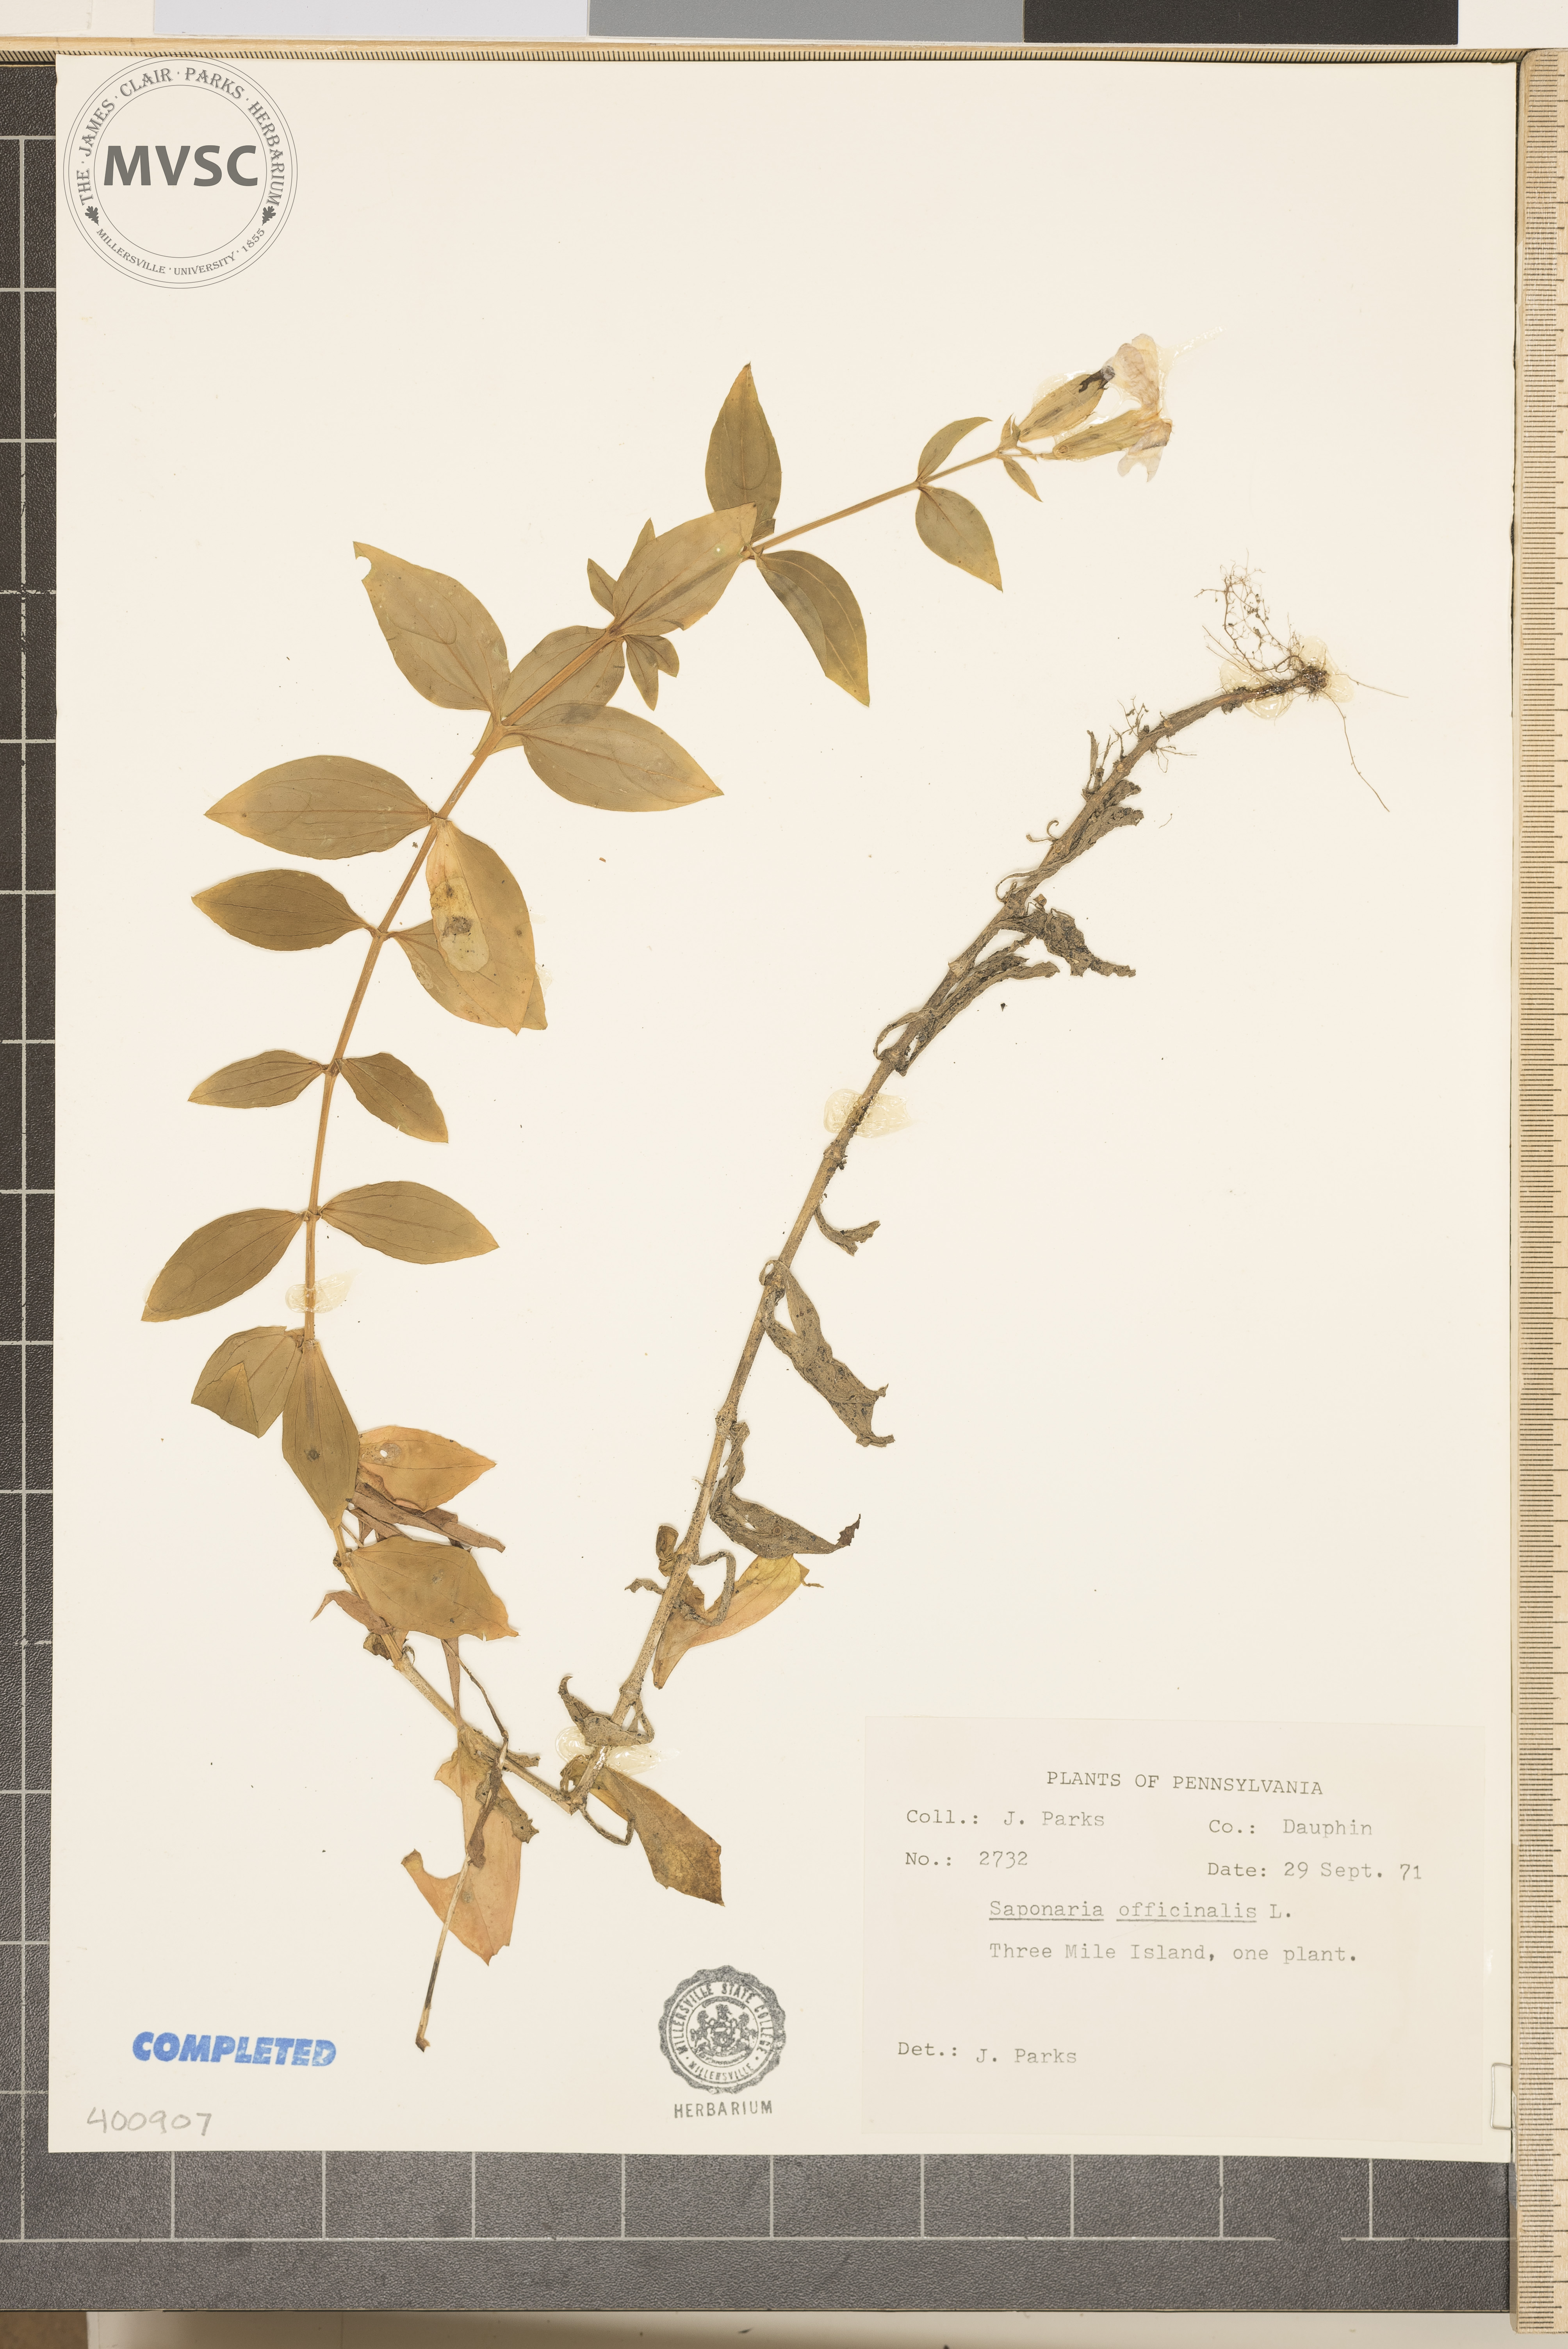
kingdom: Plantae
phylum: Tracheophyta
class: Magnoliopsida
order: Caryophyllales
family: Caryophyllaceae
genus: Saponaria
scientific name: Saponaria officinalis
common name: Soapwort
